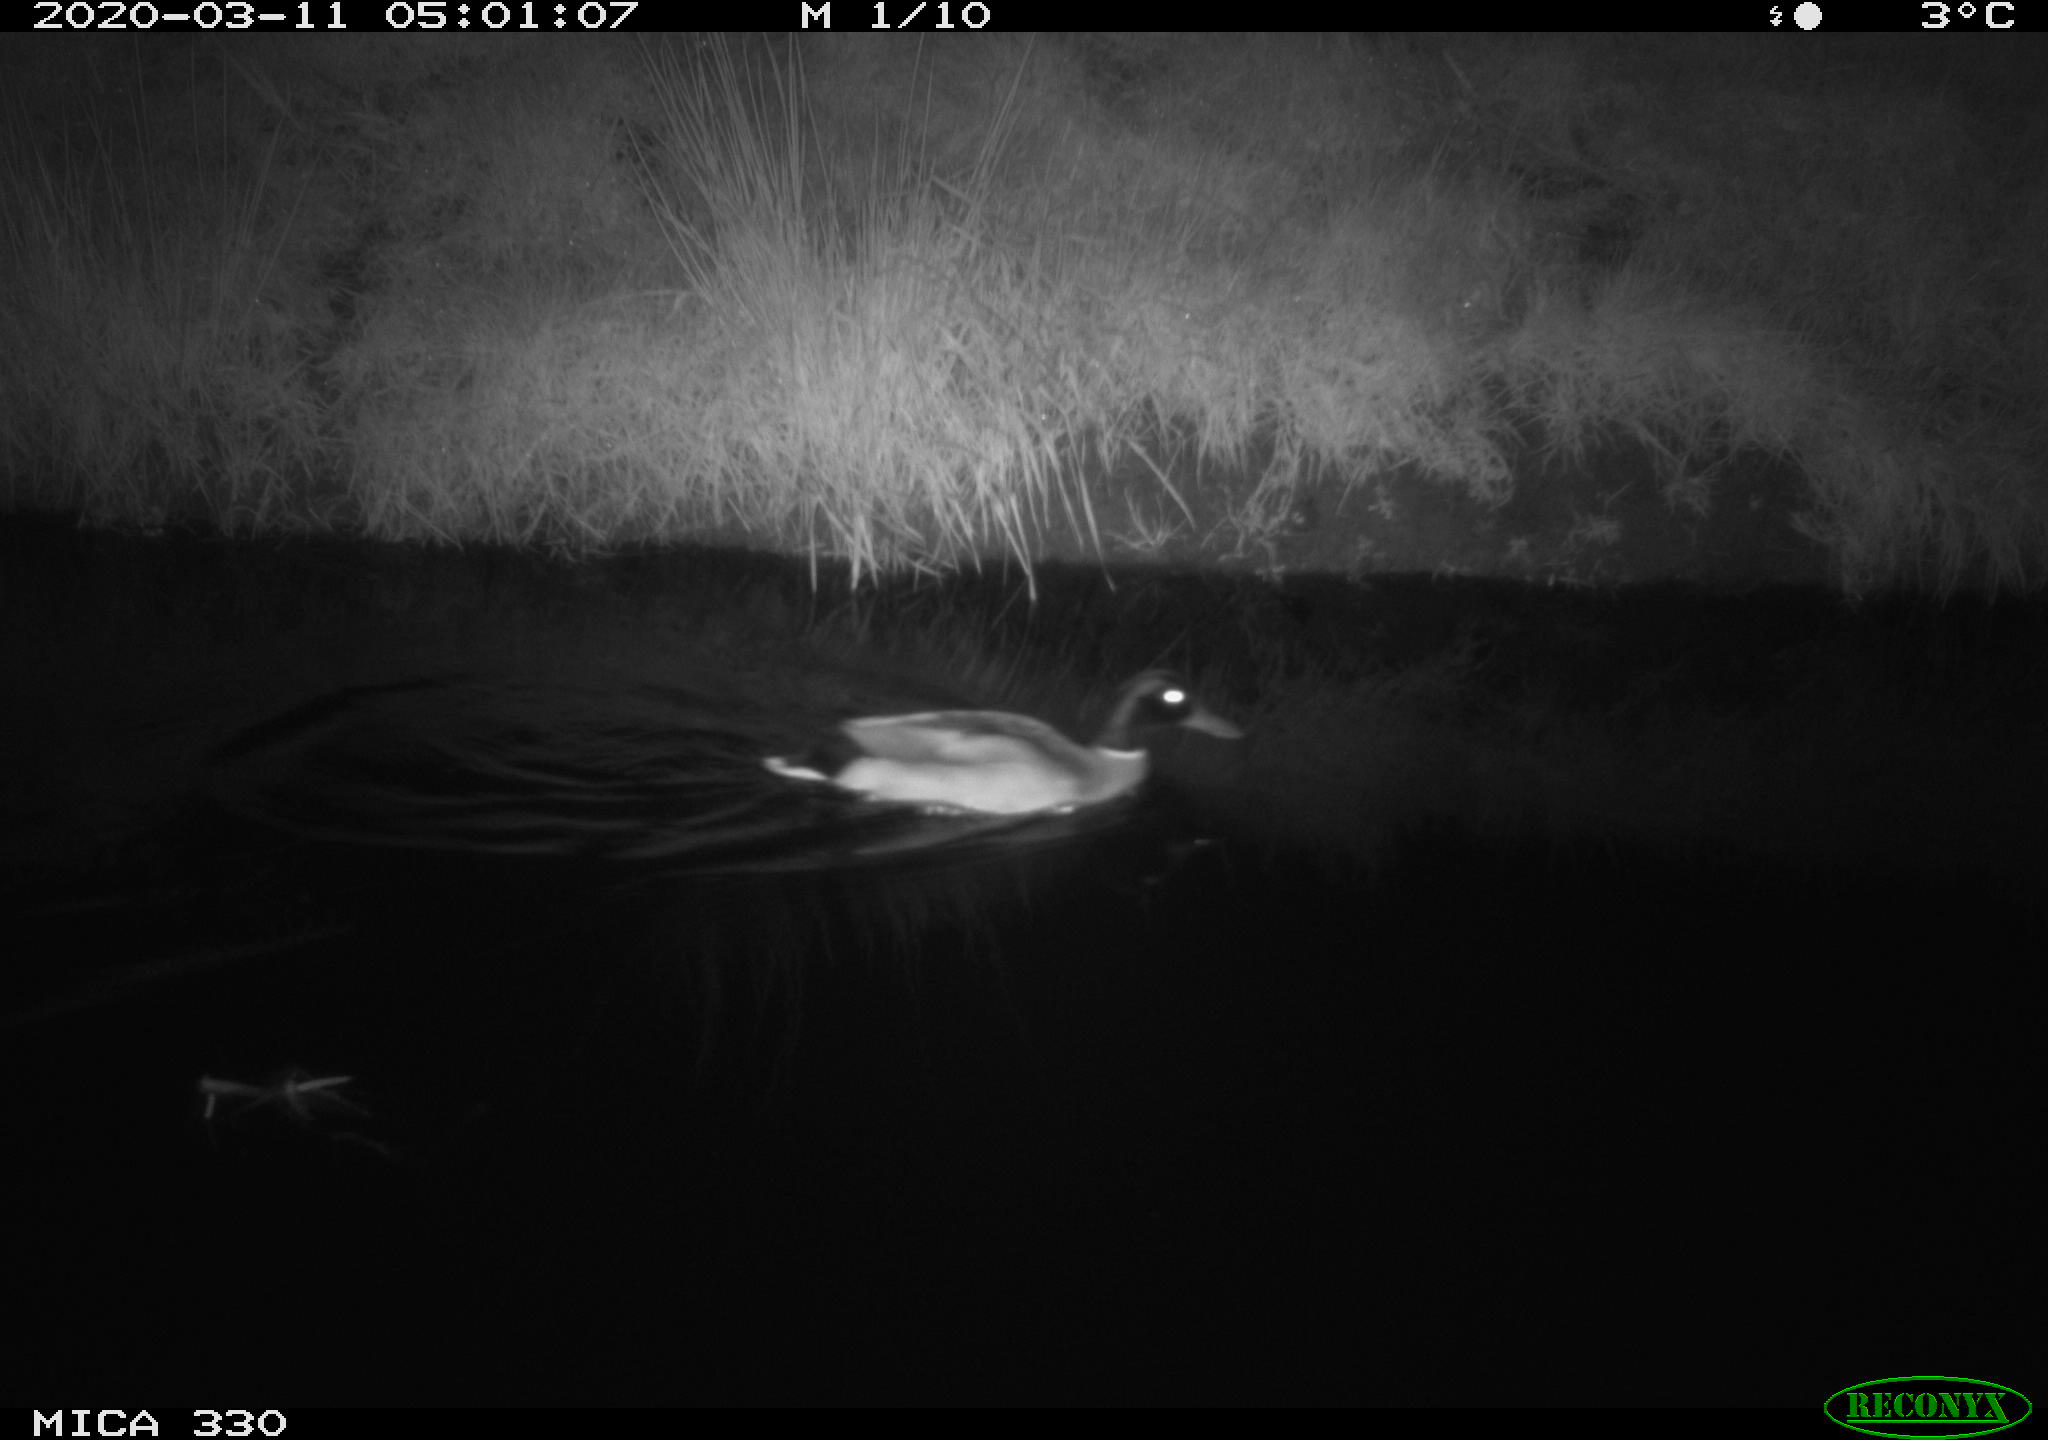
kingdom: Animalia
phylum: Chordata
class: Aves
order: Anseriformes
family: Anatidae
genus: Anas
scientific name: Anas platyrhynchos
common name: Mallard
